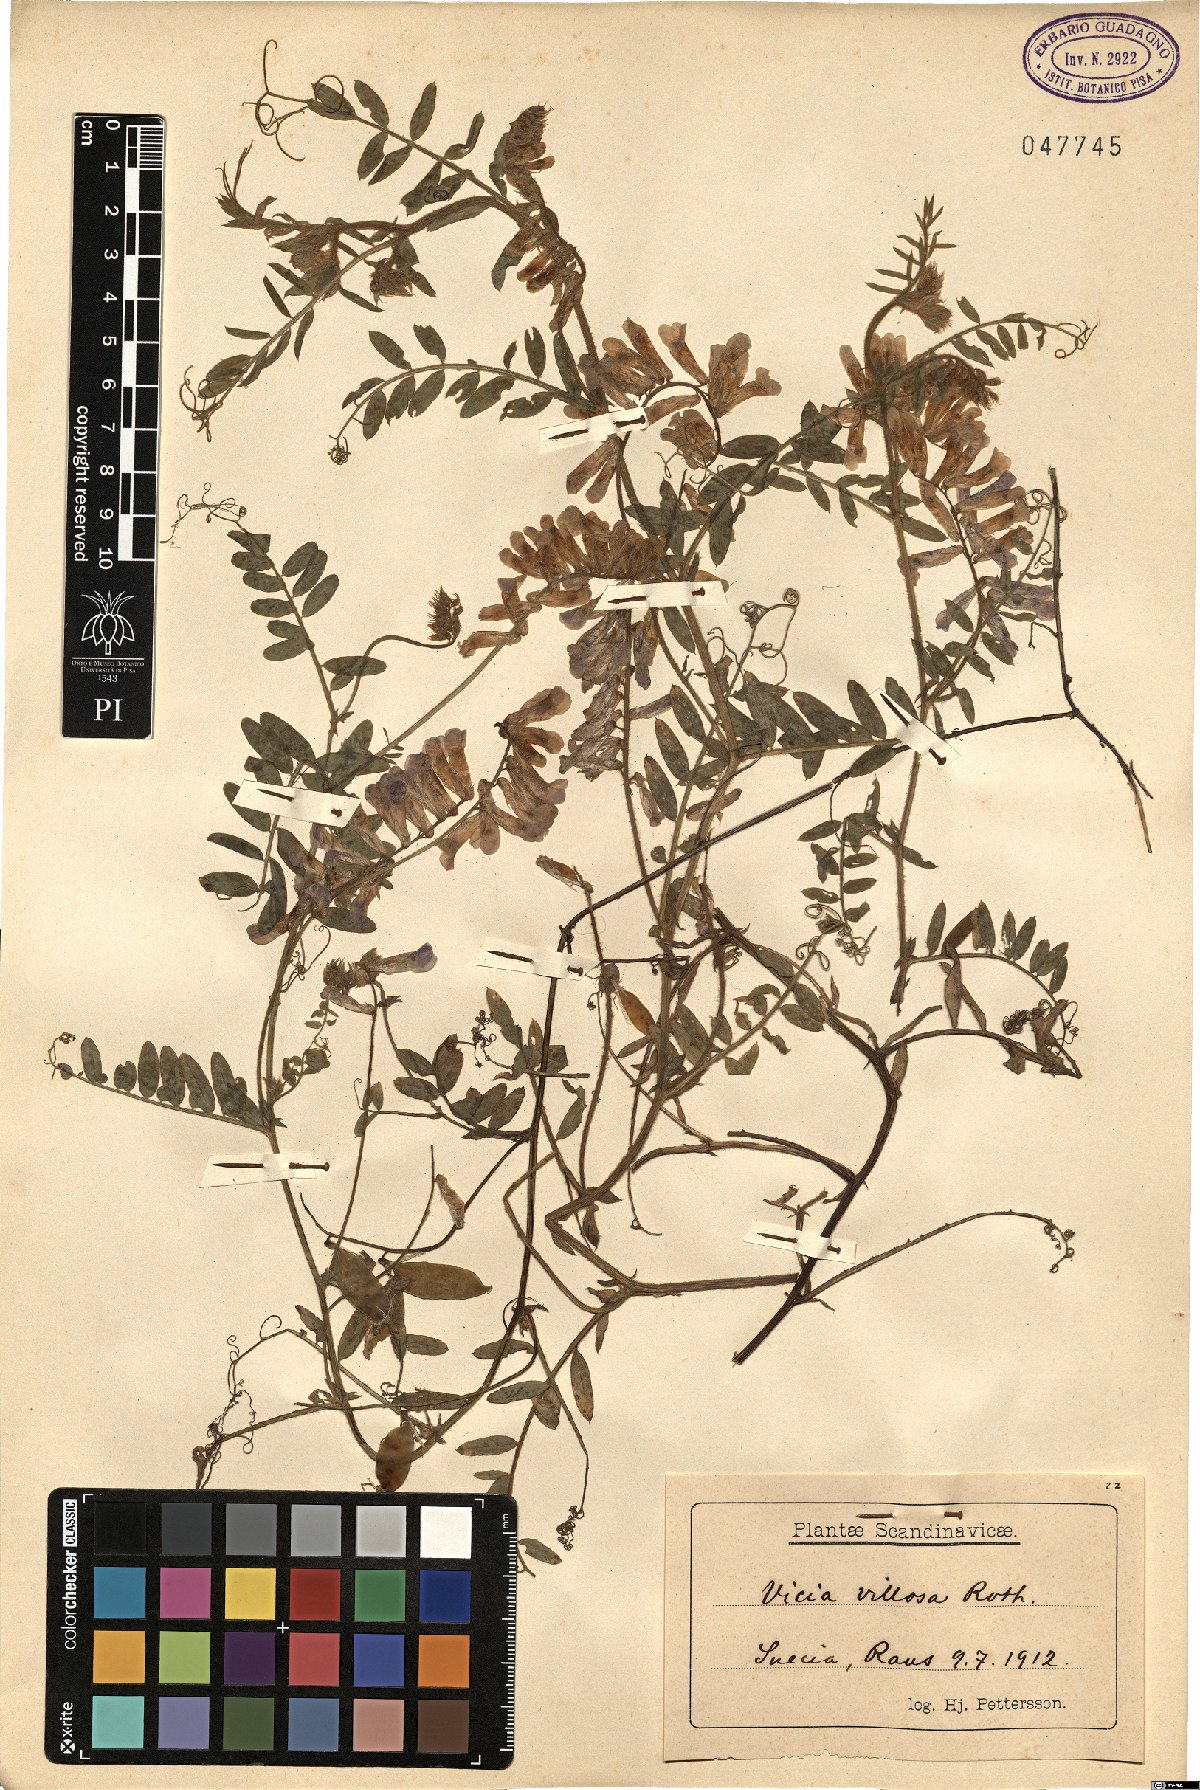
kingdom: Plantae
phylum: Tracheophyta
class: Magnoliopsida
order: Fabales
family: Fabaceae
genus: Vicia
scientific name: Vicia villosa
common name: Fodder vetch
